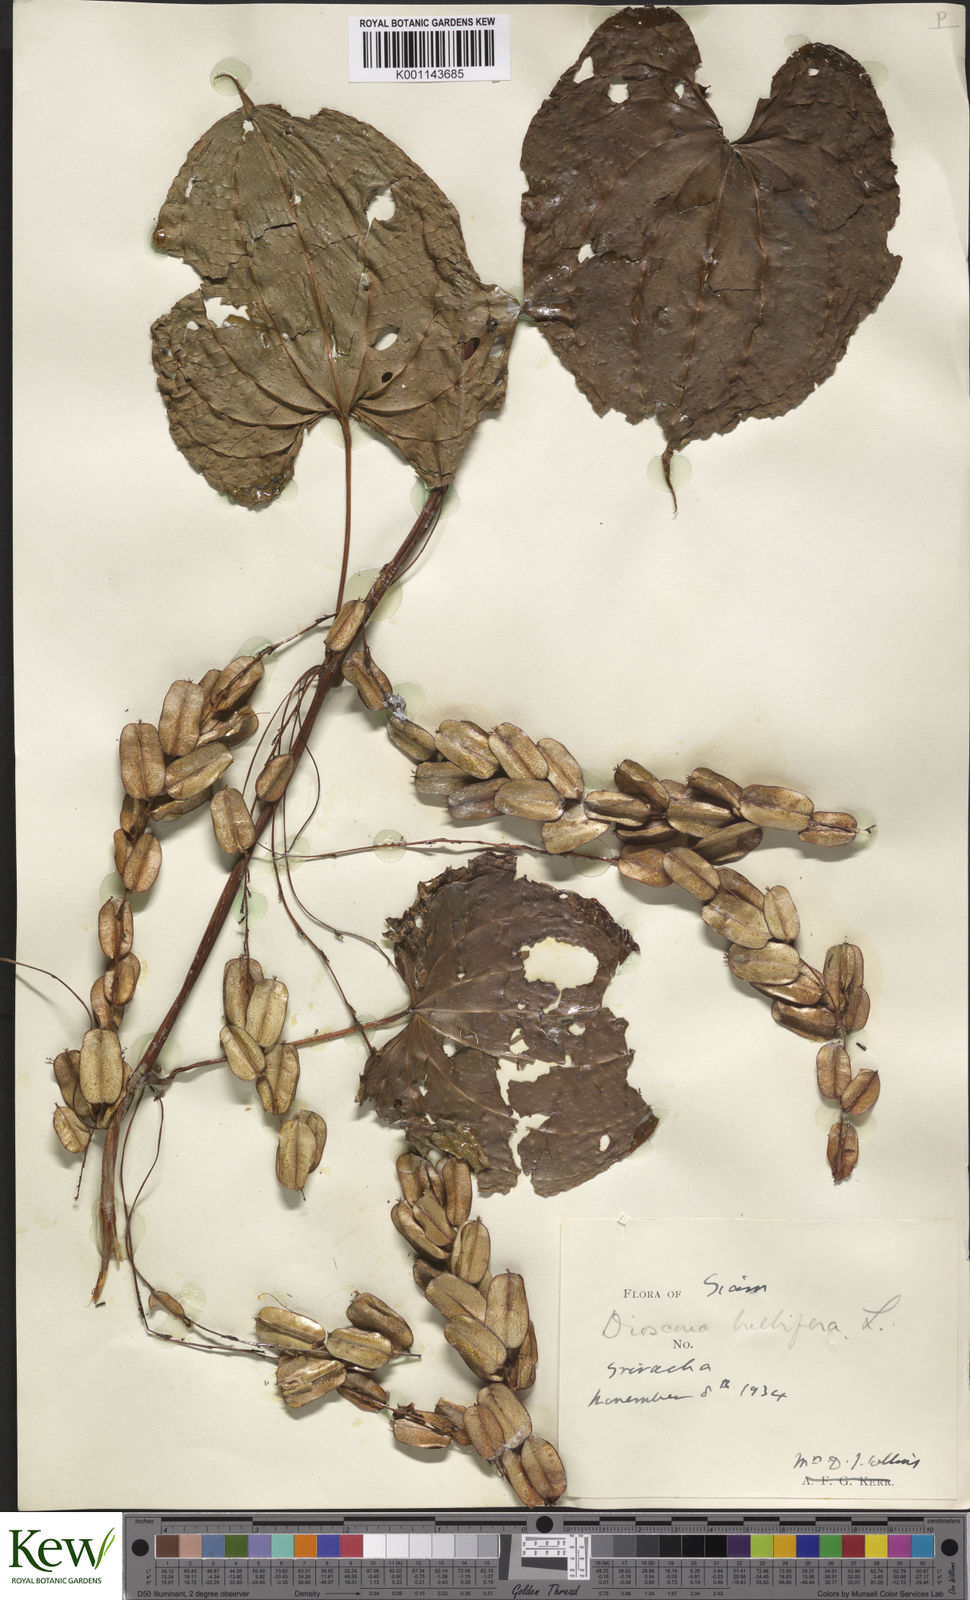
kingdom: Plantae
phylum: Tracheophyta
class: Liliopsida
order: Dioscoreales
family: Dioscoreaceae
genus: Dioscorea
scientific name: Dioscorea bulbifera
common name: Air yam
